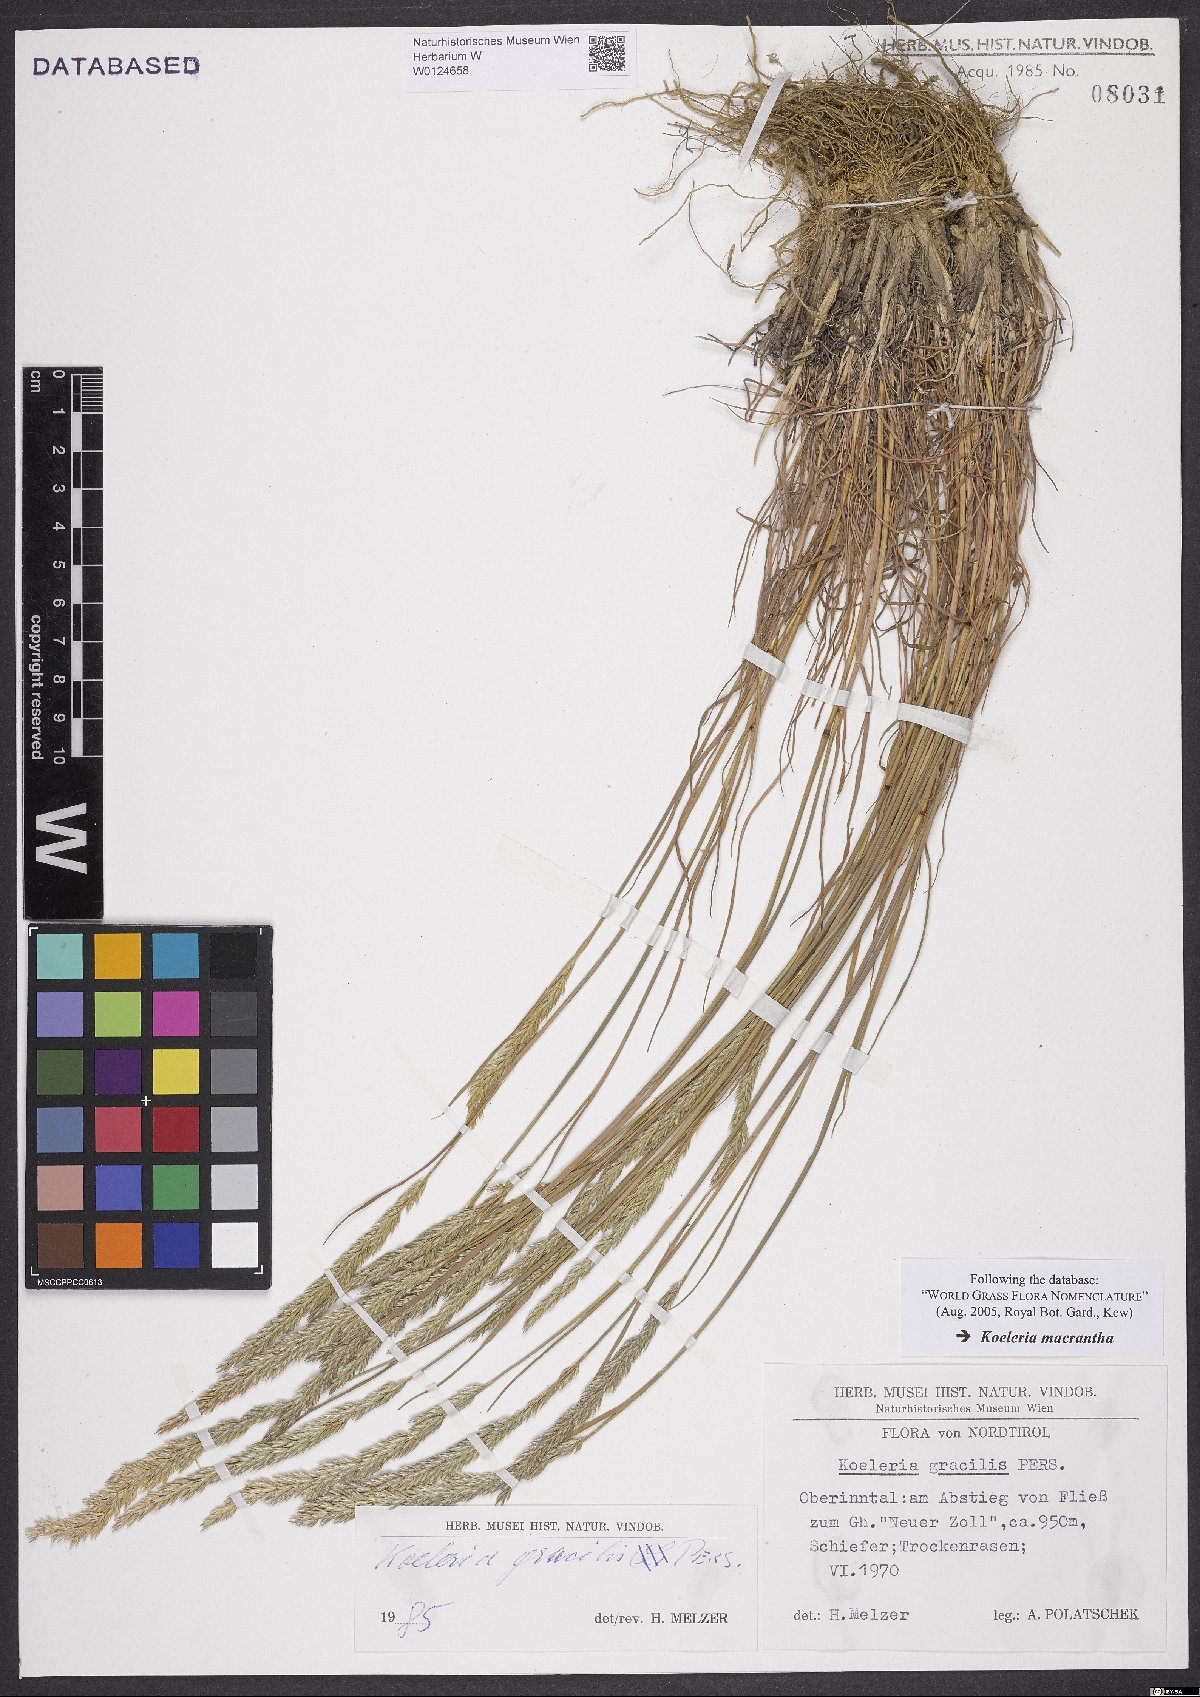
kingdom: Plantae
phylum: Tracheophyta
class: Liliopsida
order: Poales
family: Poaceae
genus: Koeleria
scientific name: Koeleria macrantha
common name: Crested hair-grass
